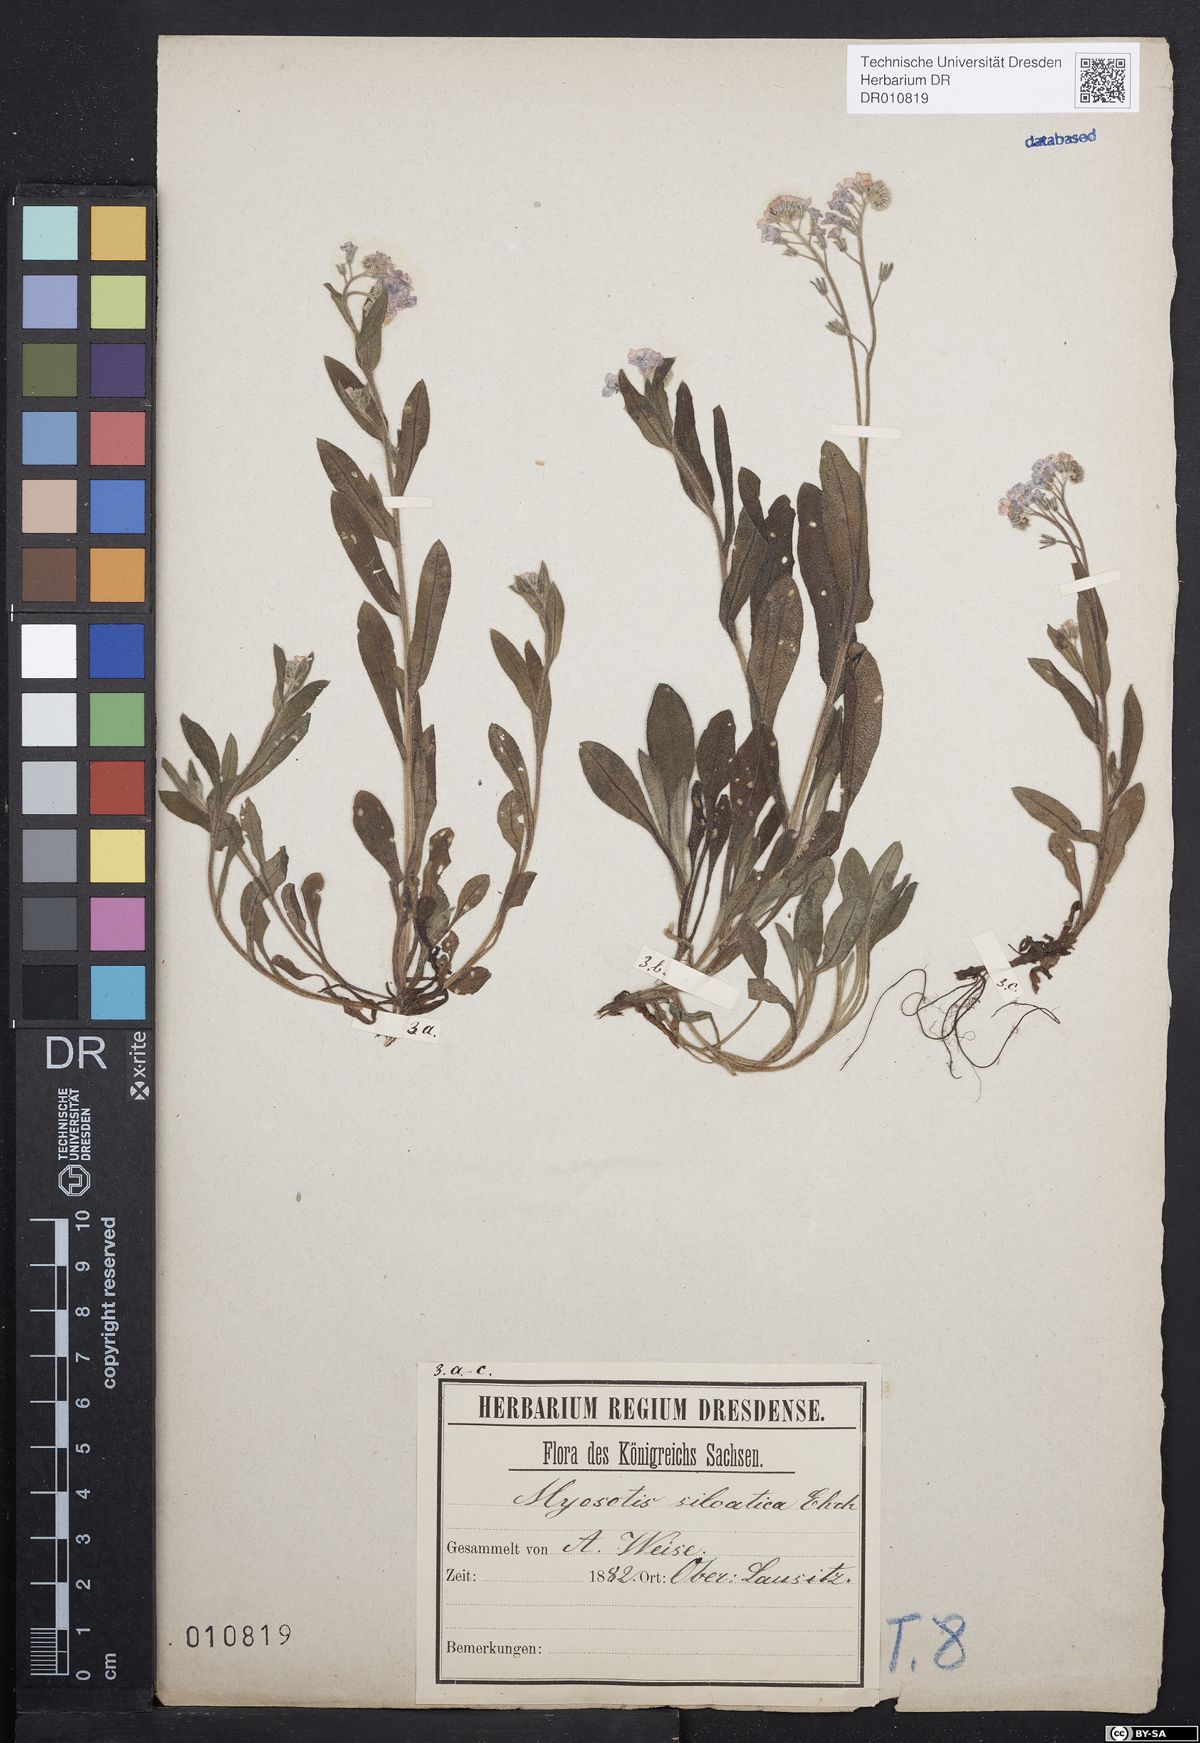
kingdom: Plantae
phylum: Tracheophyta
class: Magnoliopsida
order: Boraginales
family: Boraginaceae
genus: Myosotis
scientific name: Myosotis sylvatica
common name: Wood forget-me-not
